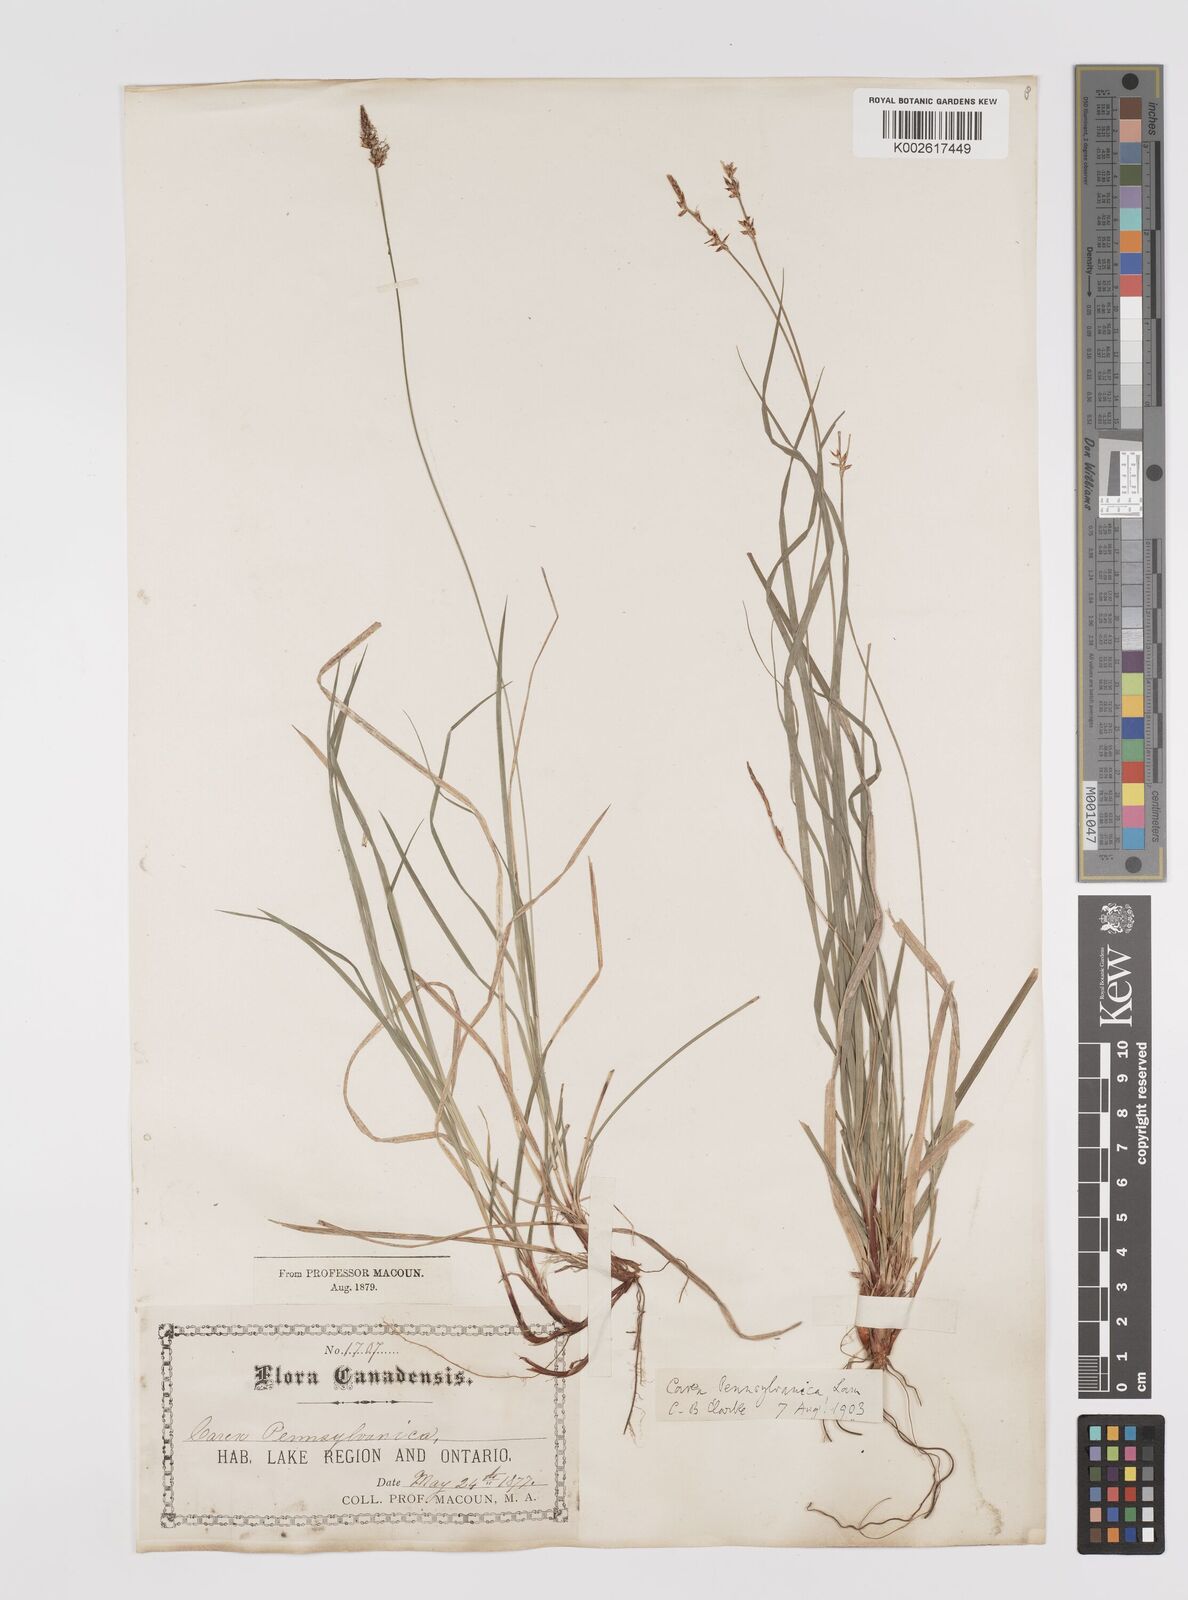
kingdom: Plantae
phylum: Tracheophyta
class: Liliopsida
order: Poales
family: Cyperaceae
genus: Carex
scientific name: Carex pensylvanica
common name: Common oak sedge
